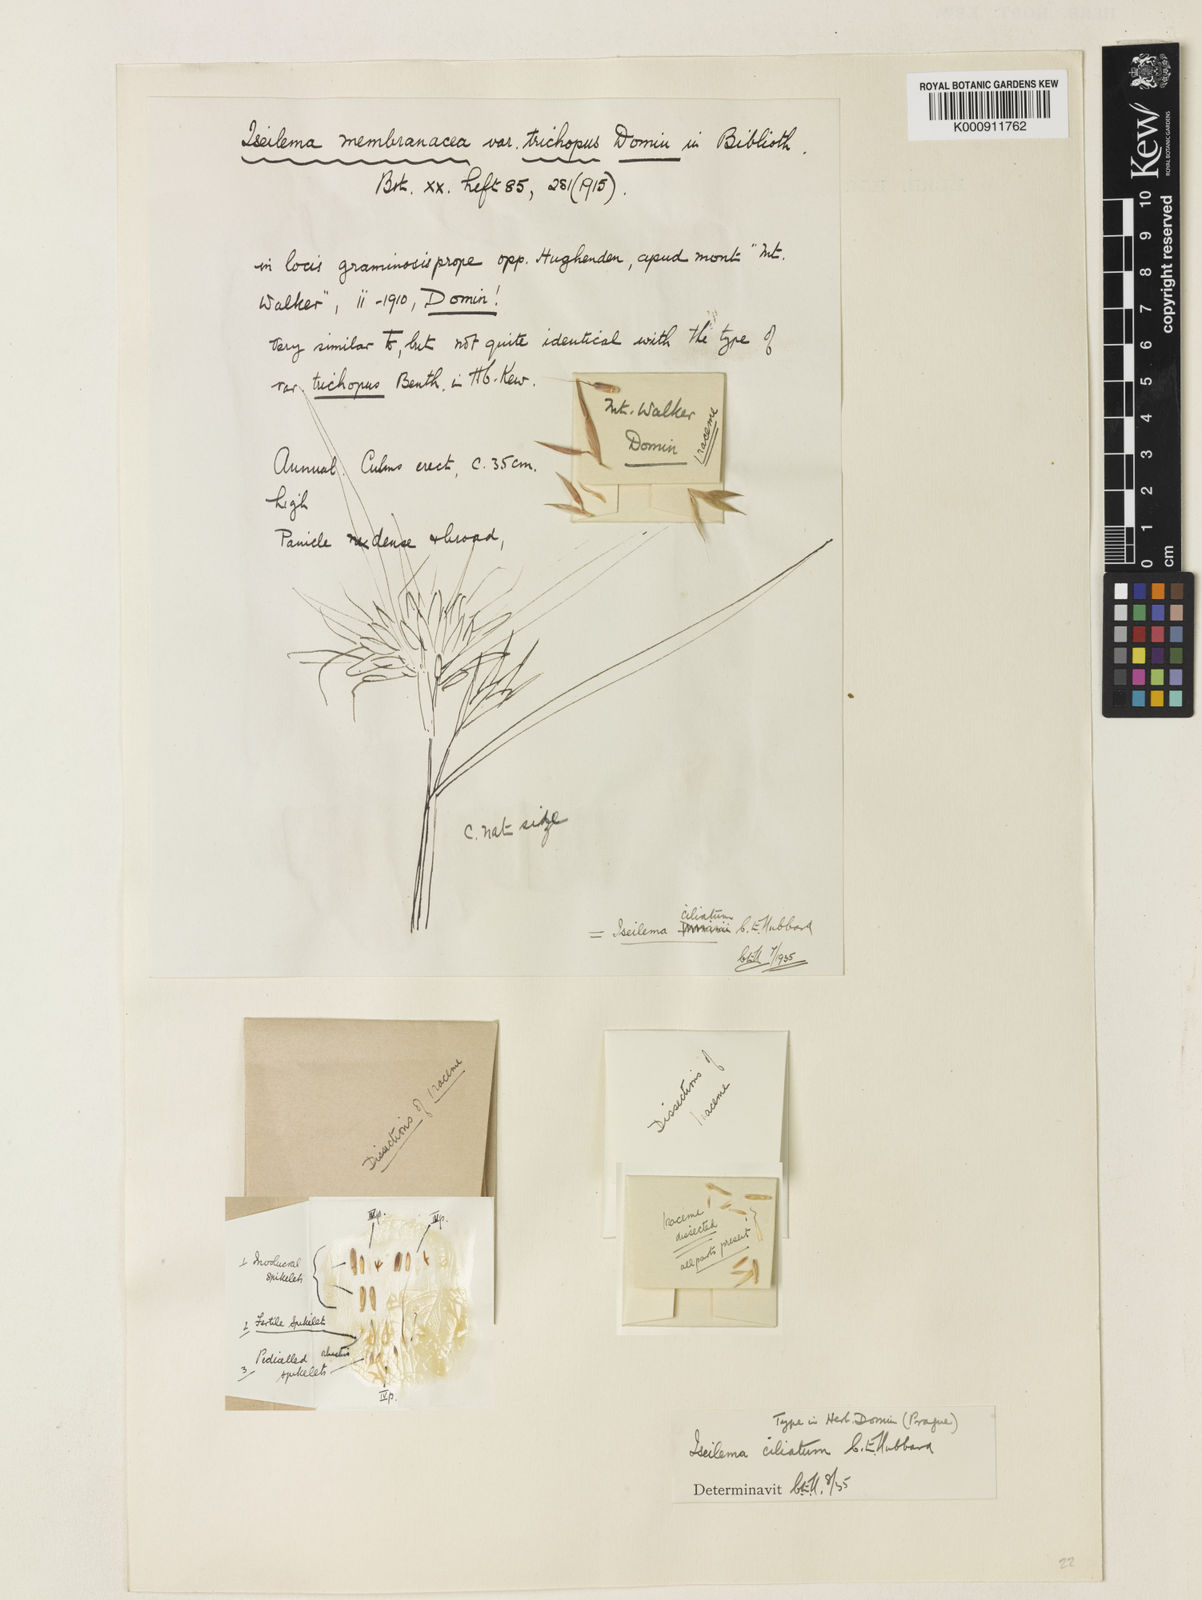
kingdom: Plantae
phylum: Tracheophyta
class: Liliopsida
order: Poales
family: Poaceae
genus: Iseilema
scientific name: Iseilema ciliatum
